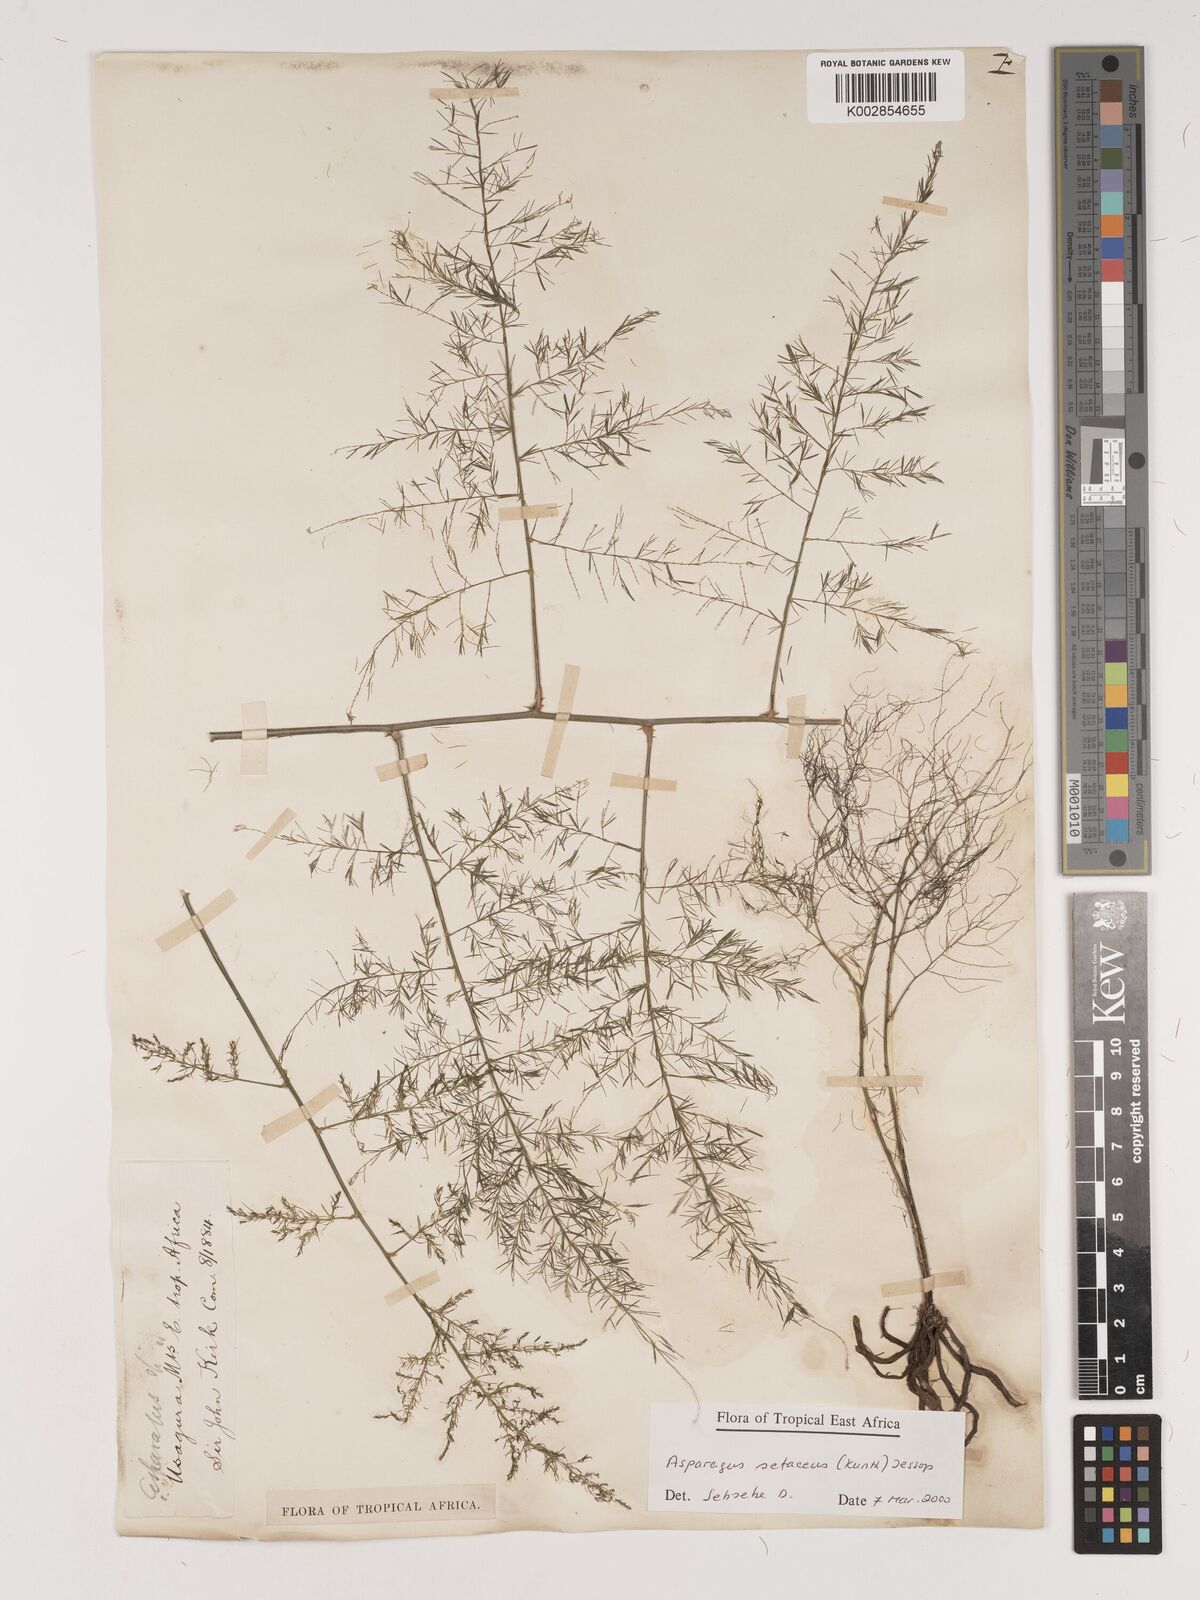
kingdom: Plantae
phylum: Tracheophyta
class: Liliopsida
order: Asparagales
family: Asparagaceae
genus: Asparagus
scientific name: Asparagus setaceus
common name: Common asparagus fern
